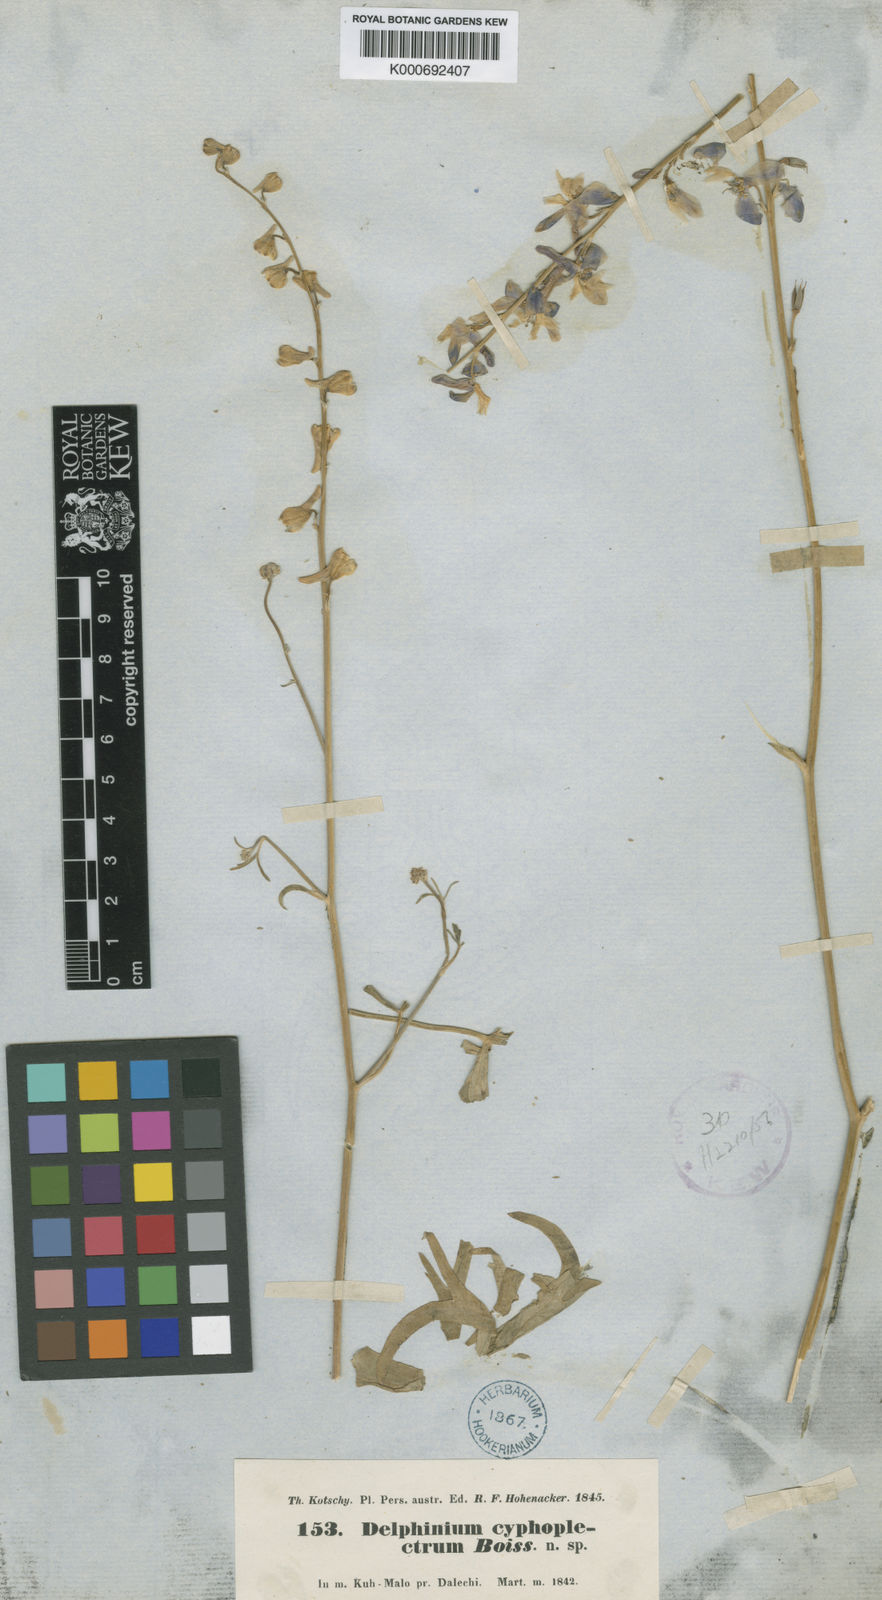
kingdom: Plantae
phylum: Tracheophyta
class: Magnoliopsida
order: Ranunculales
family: Ranunculaceae
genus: Delphinium
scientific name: Delphinium cyphoplectrum
